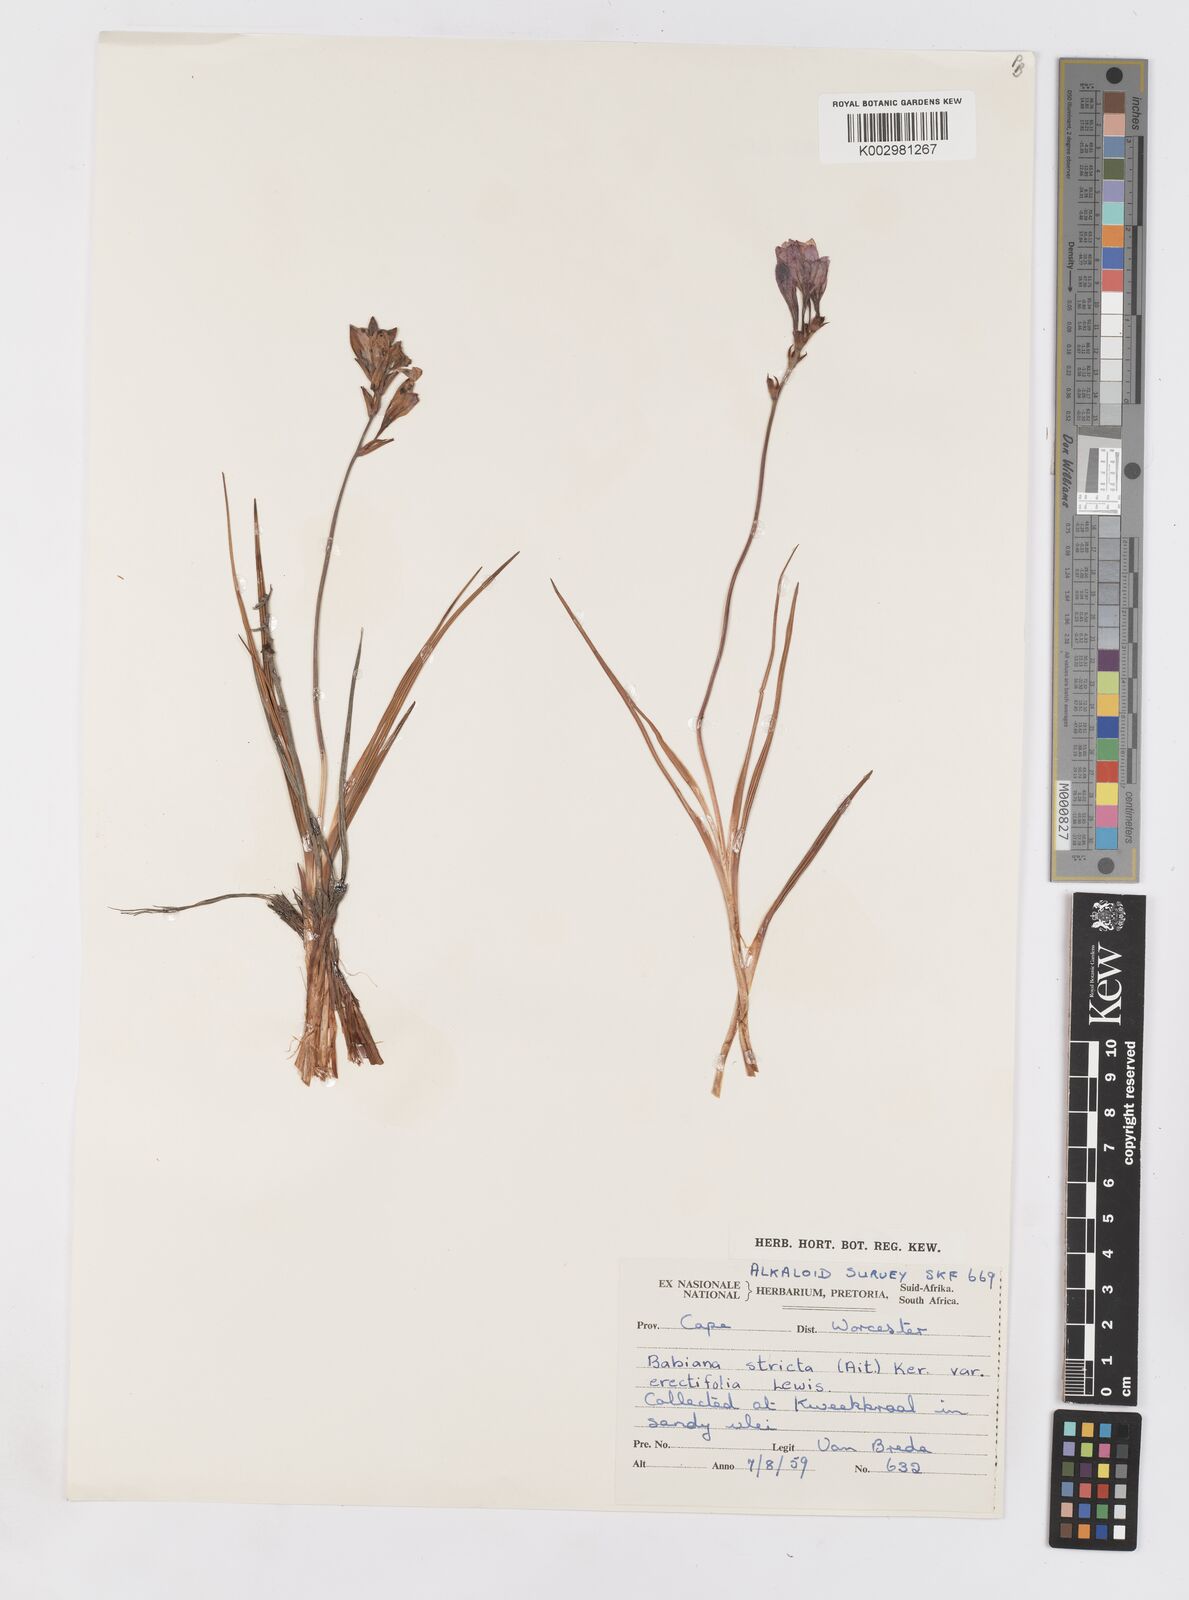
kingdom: Plantae
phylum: Tracheophyta
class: Liliopsida
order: Asparagales
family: Iridaceae
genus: Babiana
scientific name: Babiana regia
